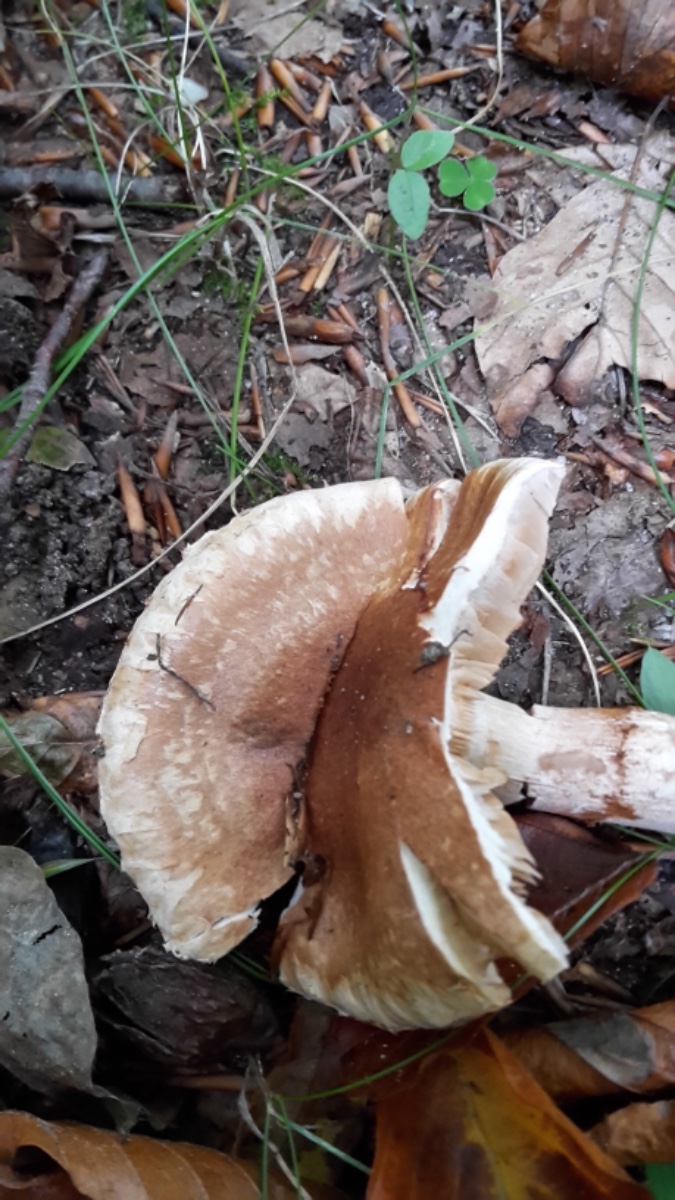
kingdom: Fungi
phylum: Basidiomycota
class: Agaricomycetes
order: Agaricales
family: Cortinariaceae
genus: Phlegmacium
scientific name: Phlegmacium vulpinum
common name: ringbæltet slørhat
